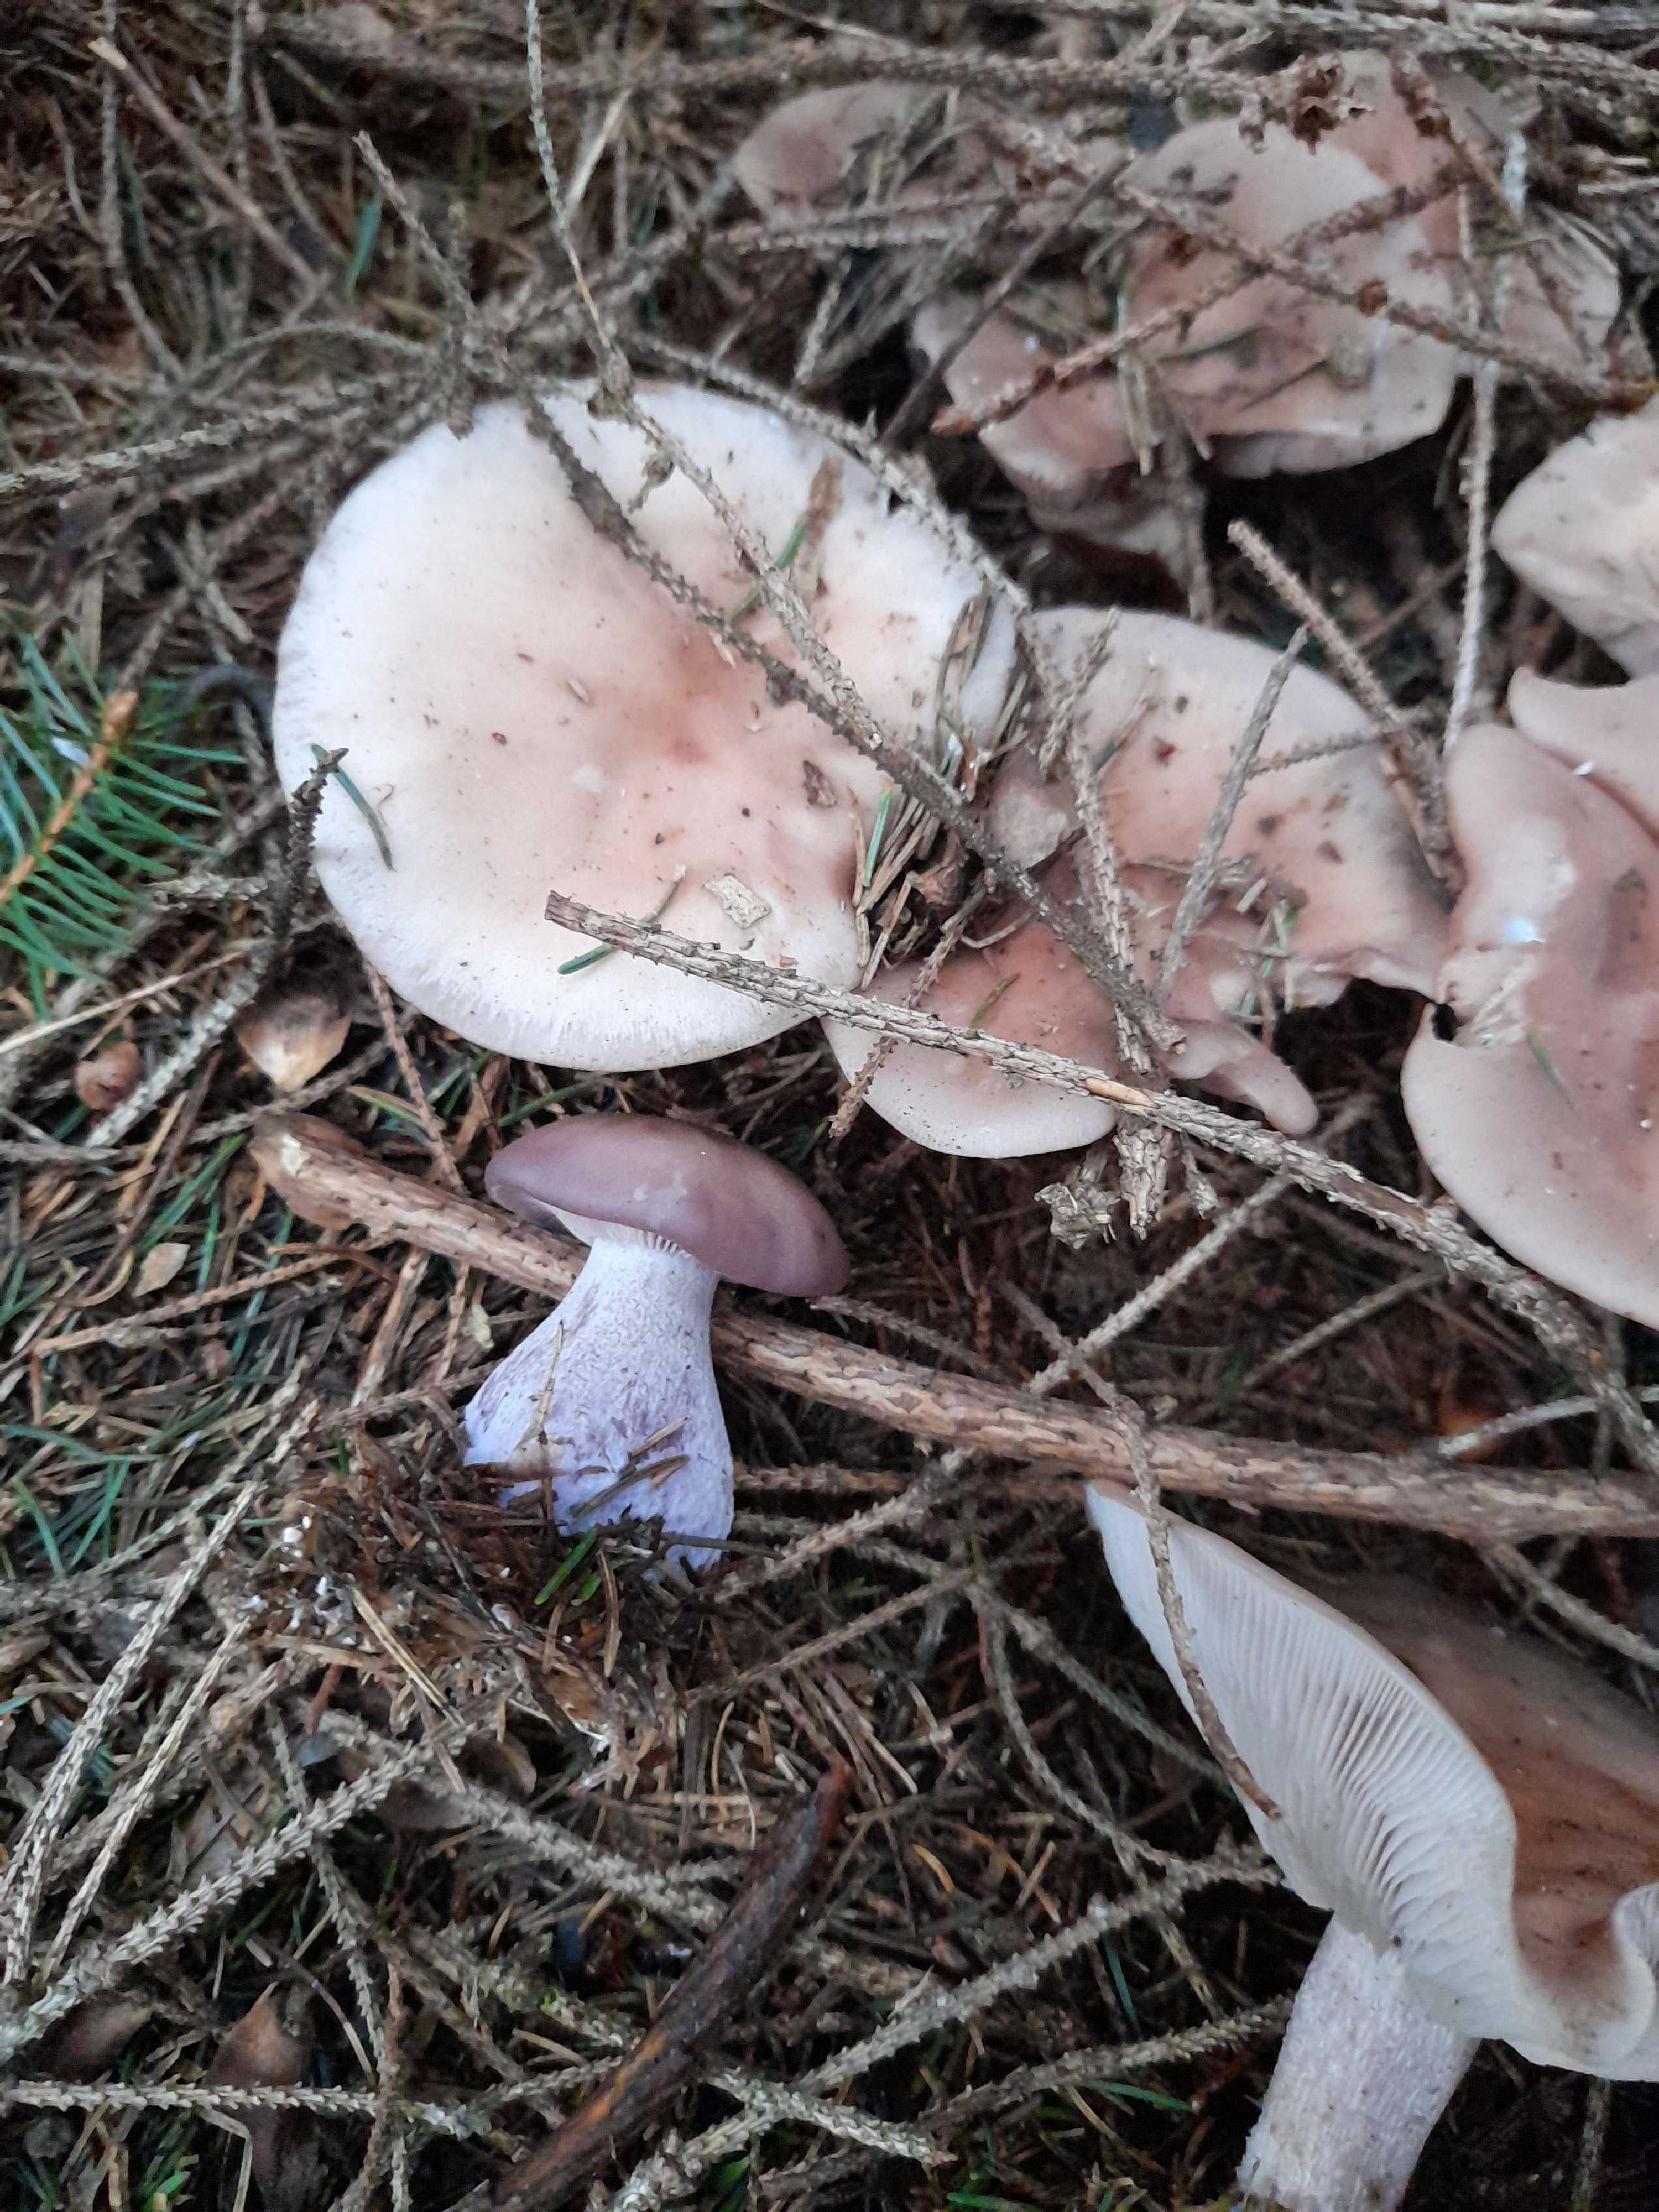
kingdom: Fungi
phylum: Basidiomycota
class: Agaricomycetes
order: Agaricales
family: Tricholomataceae
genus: Lepista
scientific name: Lepista nuda
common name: violet hekseringshat
